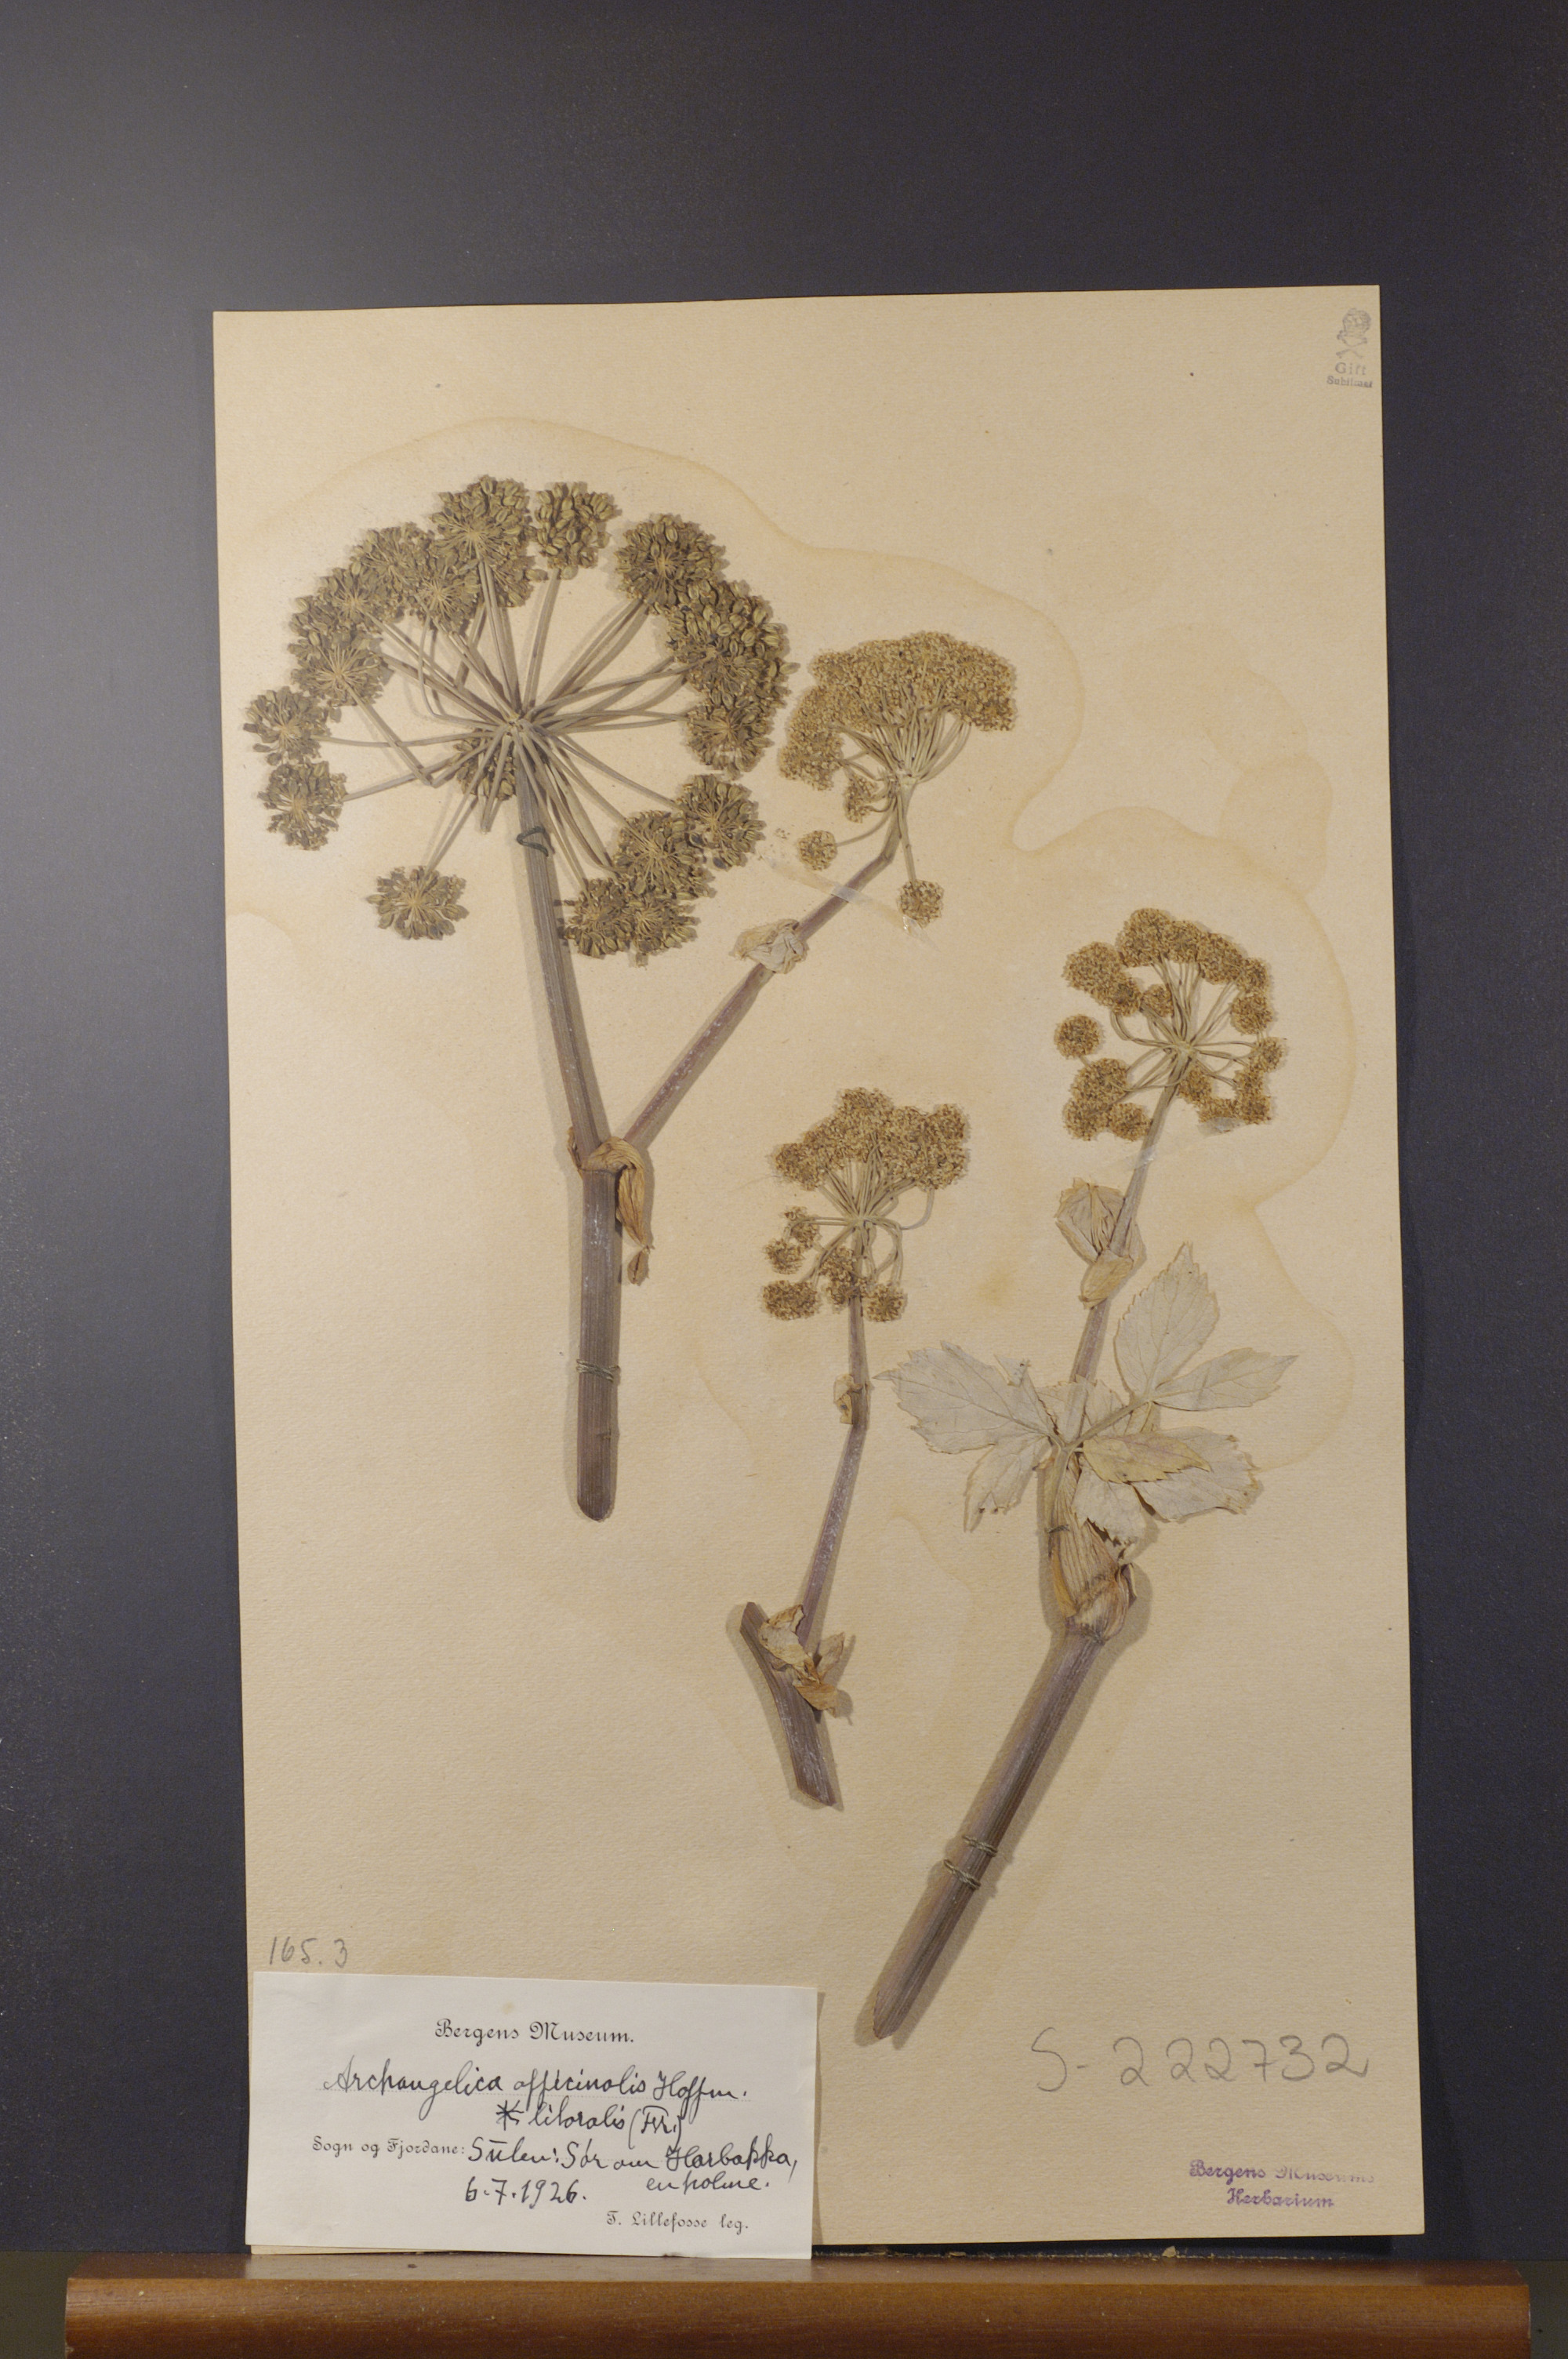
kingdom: Plantae
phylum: Tracheophyta
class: Magnoliopsida
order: Apiales
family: Apiaceae
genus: Angelica
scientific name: Angelica archangelica
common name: Garden angelica
